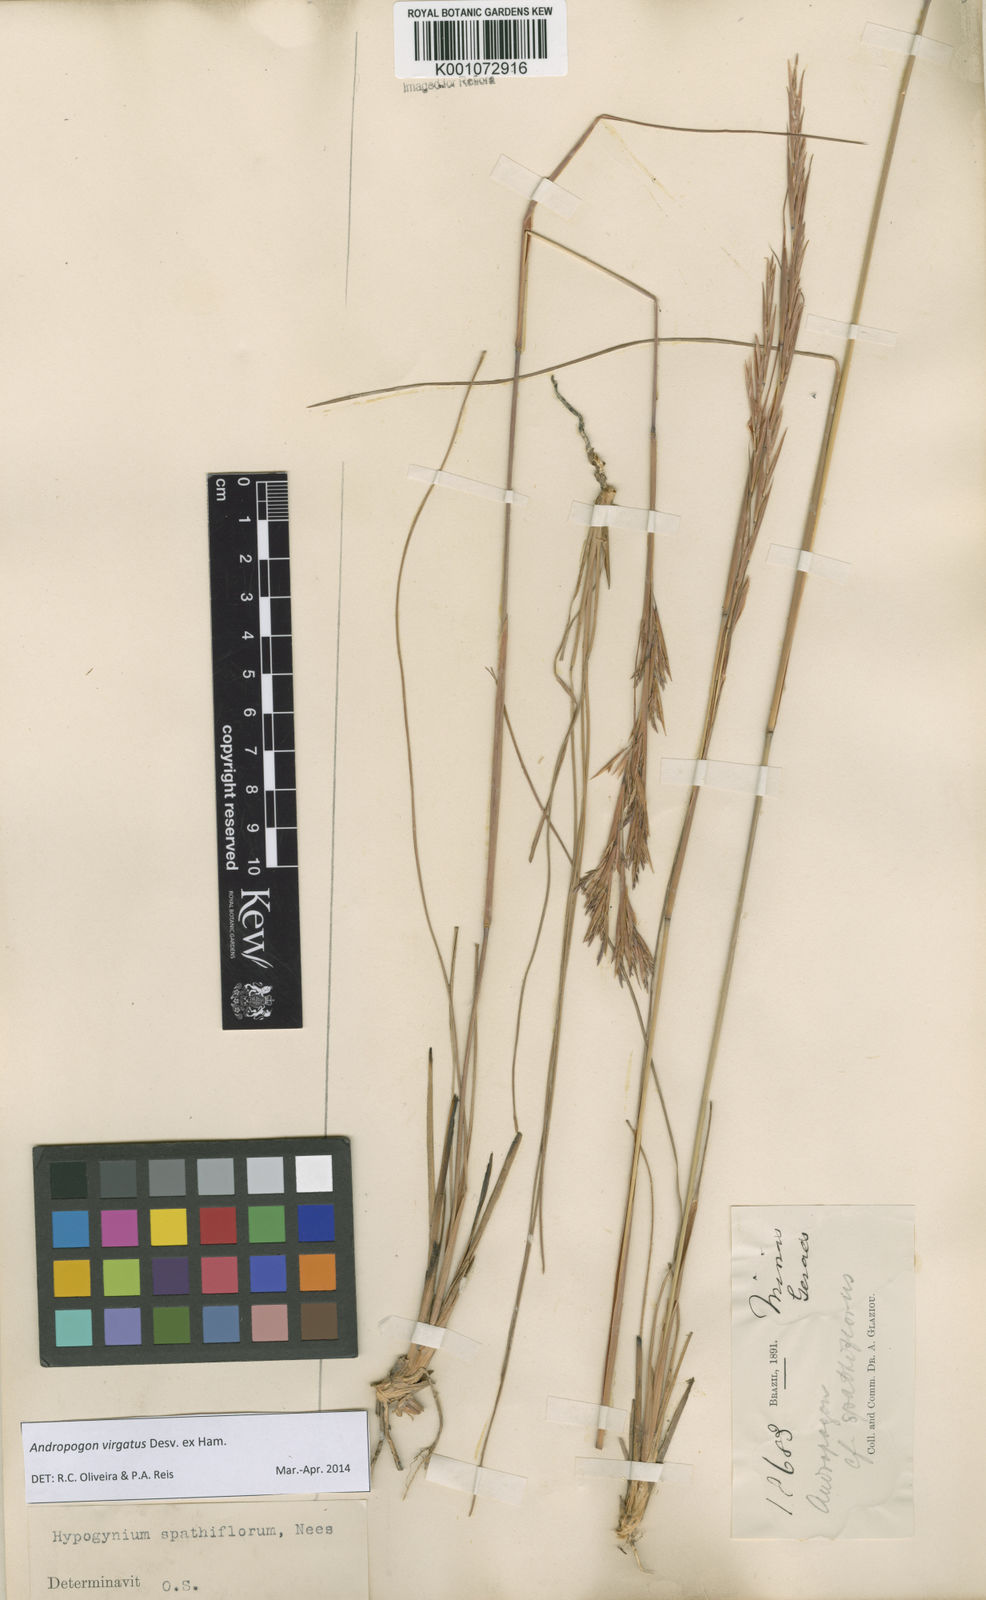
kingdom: Plantae
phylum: Tracheophyta
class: Liliopsida
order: Poales
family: Poaceae
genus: Andropogon
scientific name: Andropogon virgatus
